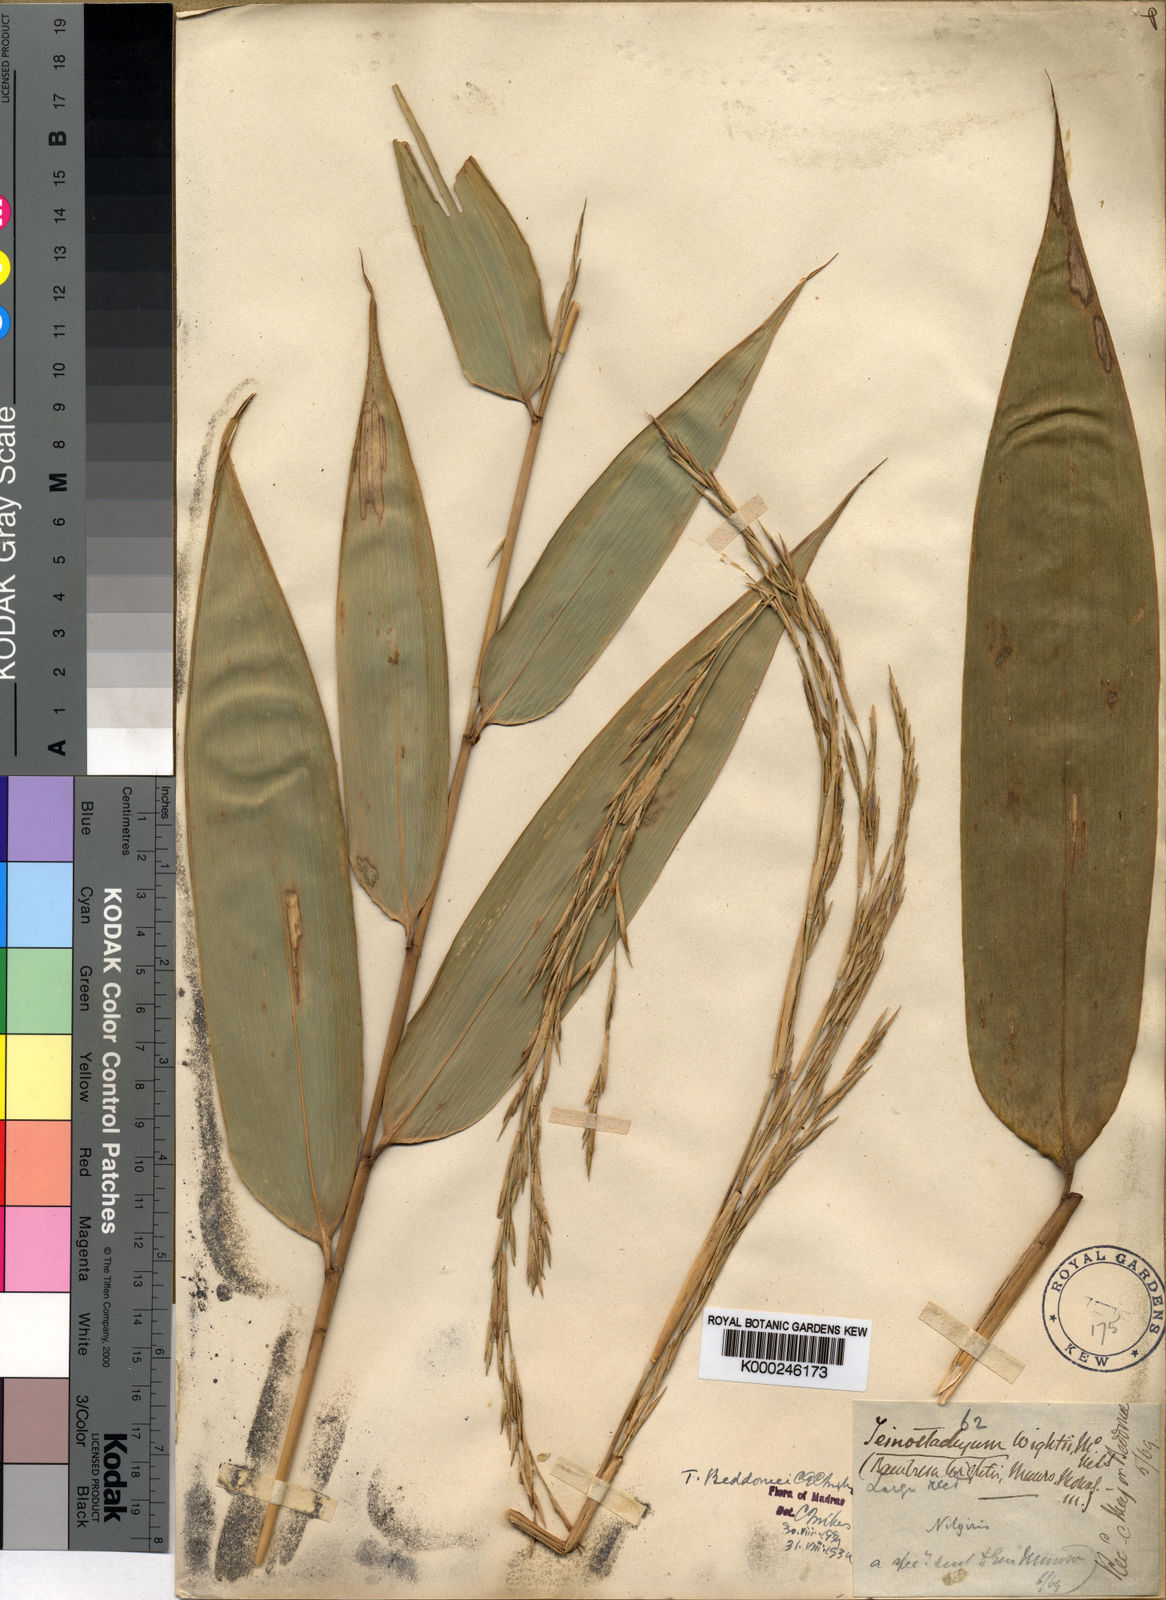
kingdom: Plantae
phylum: Tracheophyta
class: Liliopsida
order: Poales
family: Poaceae
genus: Schizostachyum
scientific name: Schizostachyum beddomei
